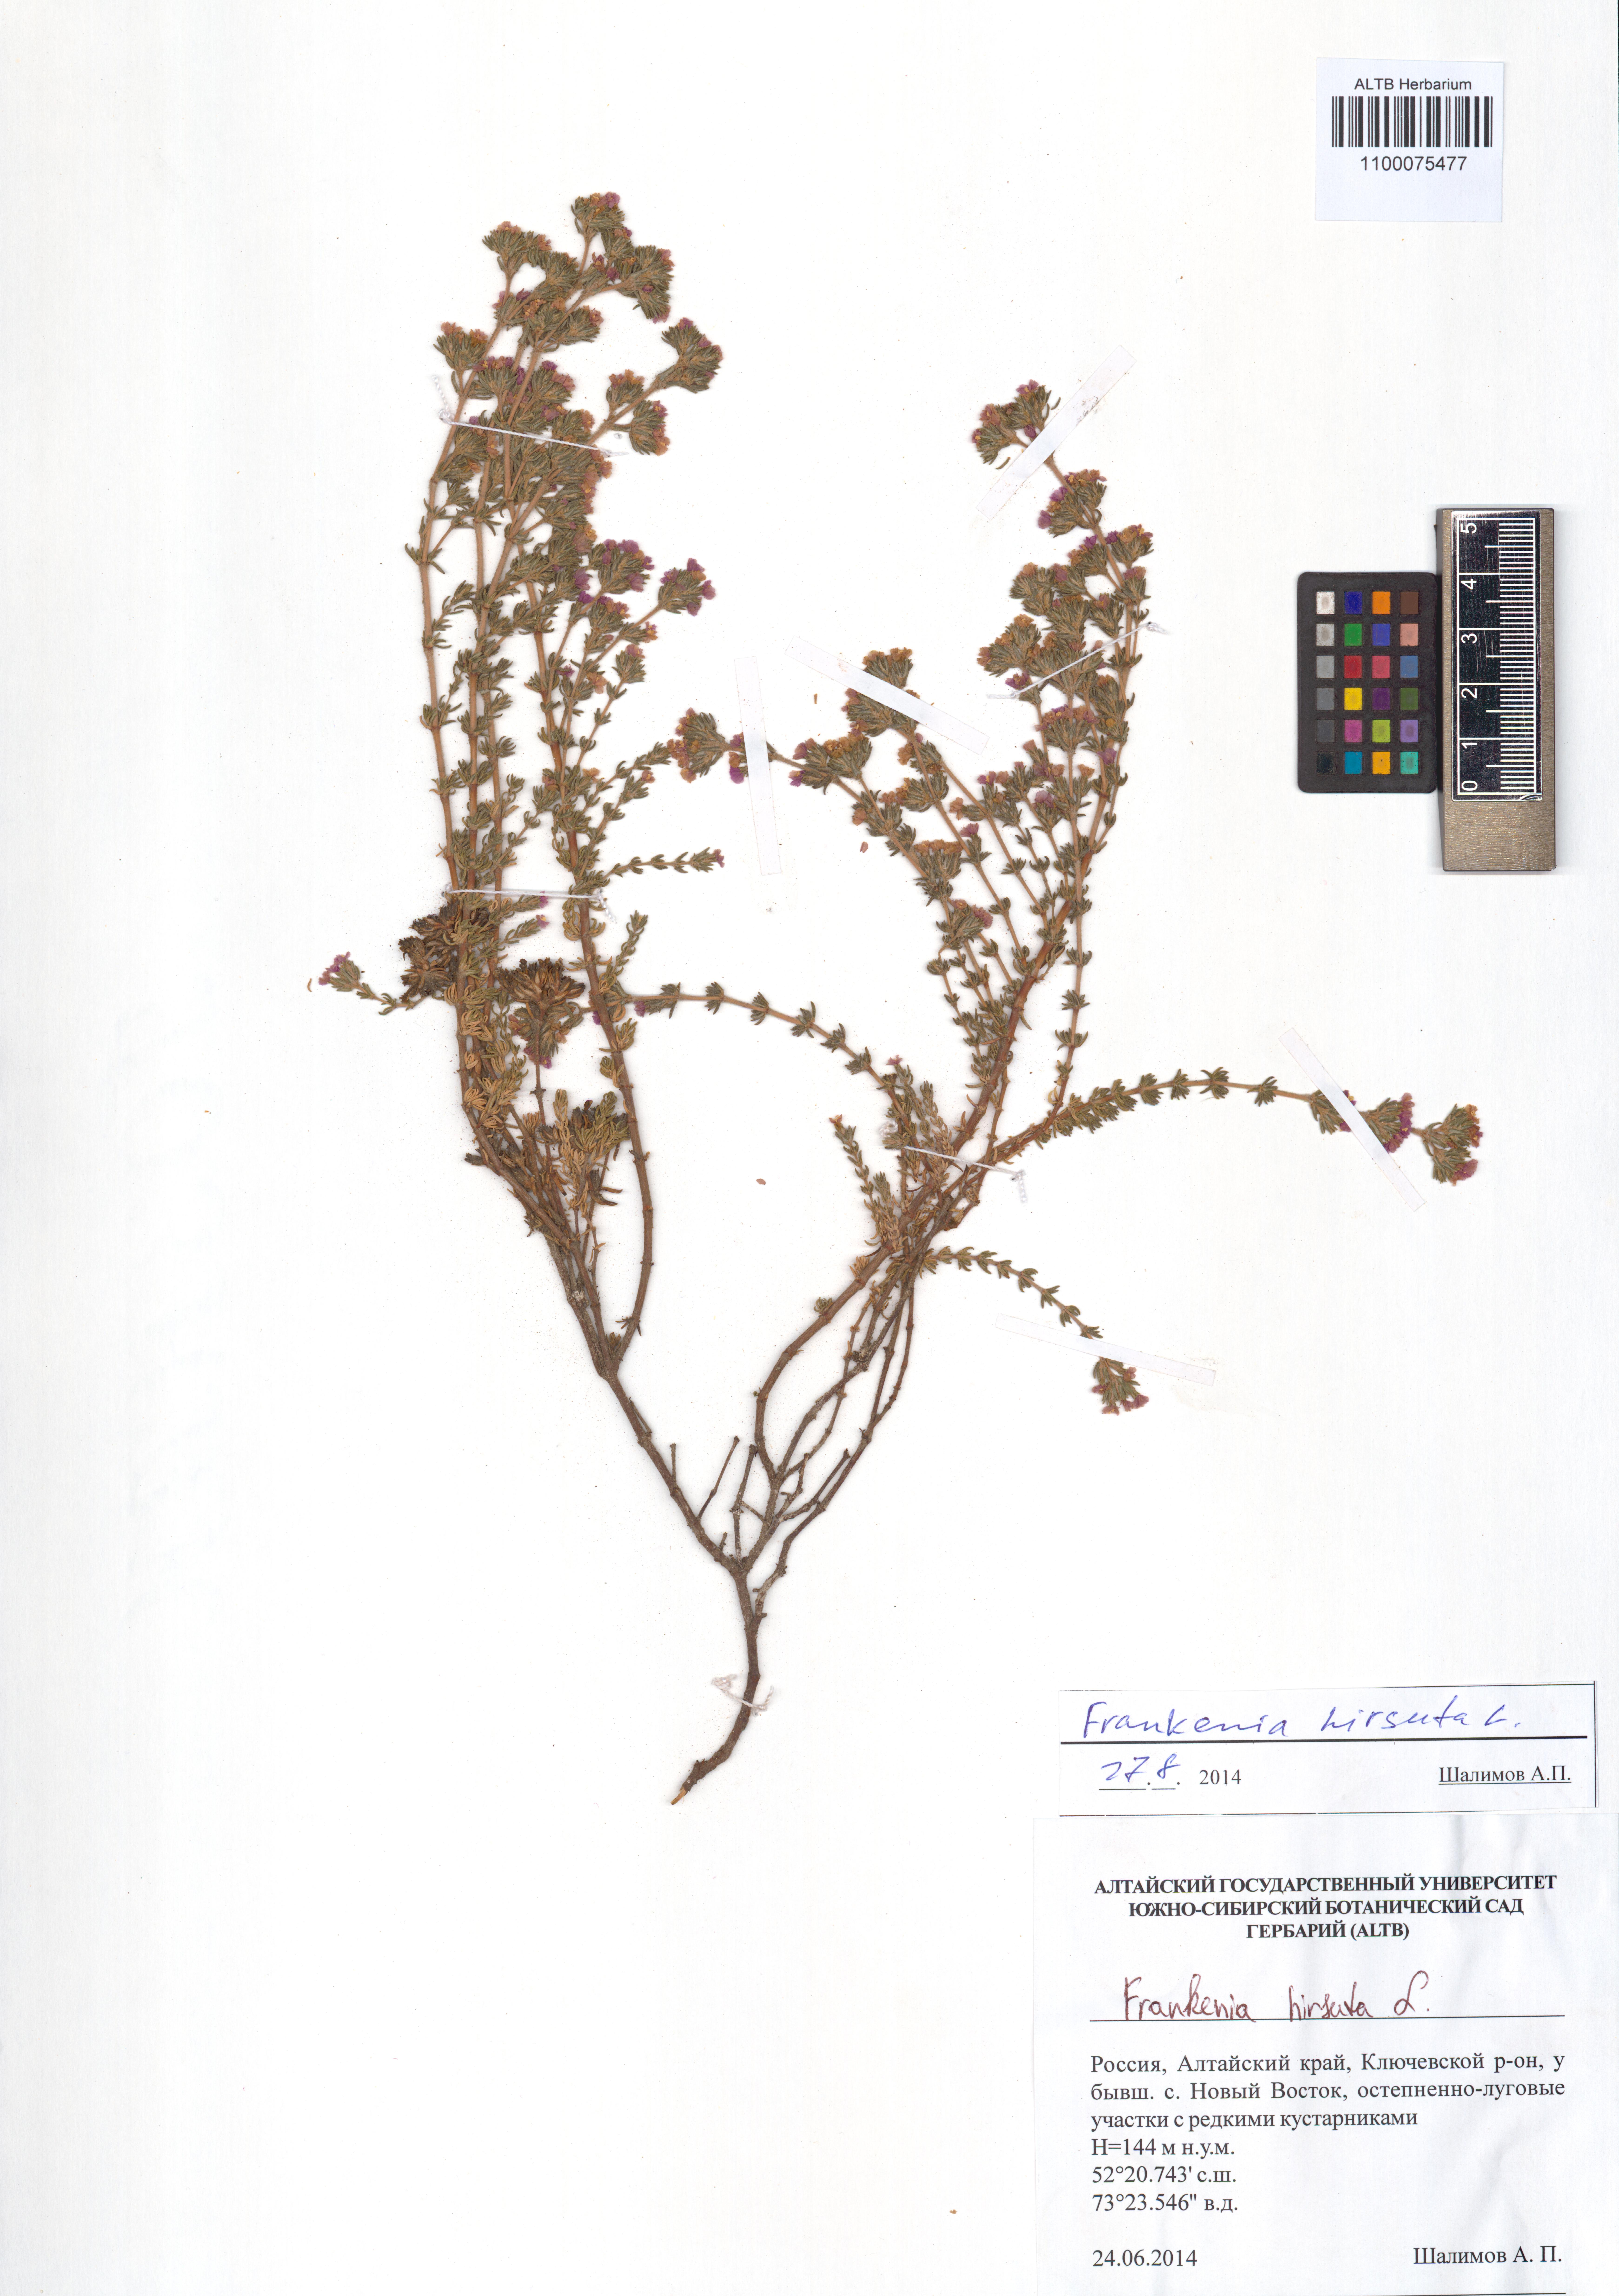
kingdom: Plantae
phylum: Tracheophyta
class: Magnoliopsida
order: Caryophyllales
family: Frankeniaceae
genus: Frankenia
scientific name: Frankenia hirsuta
